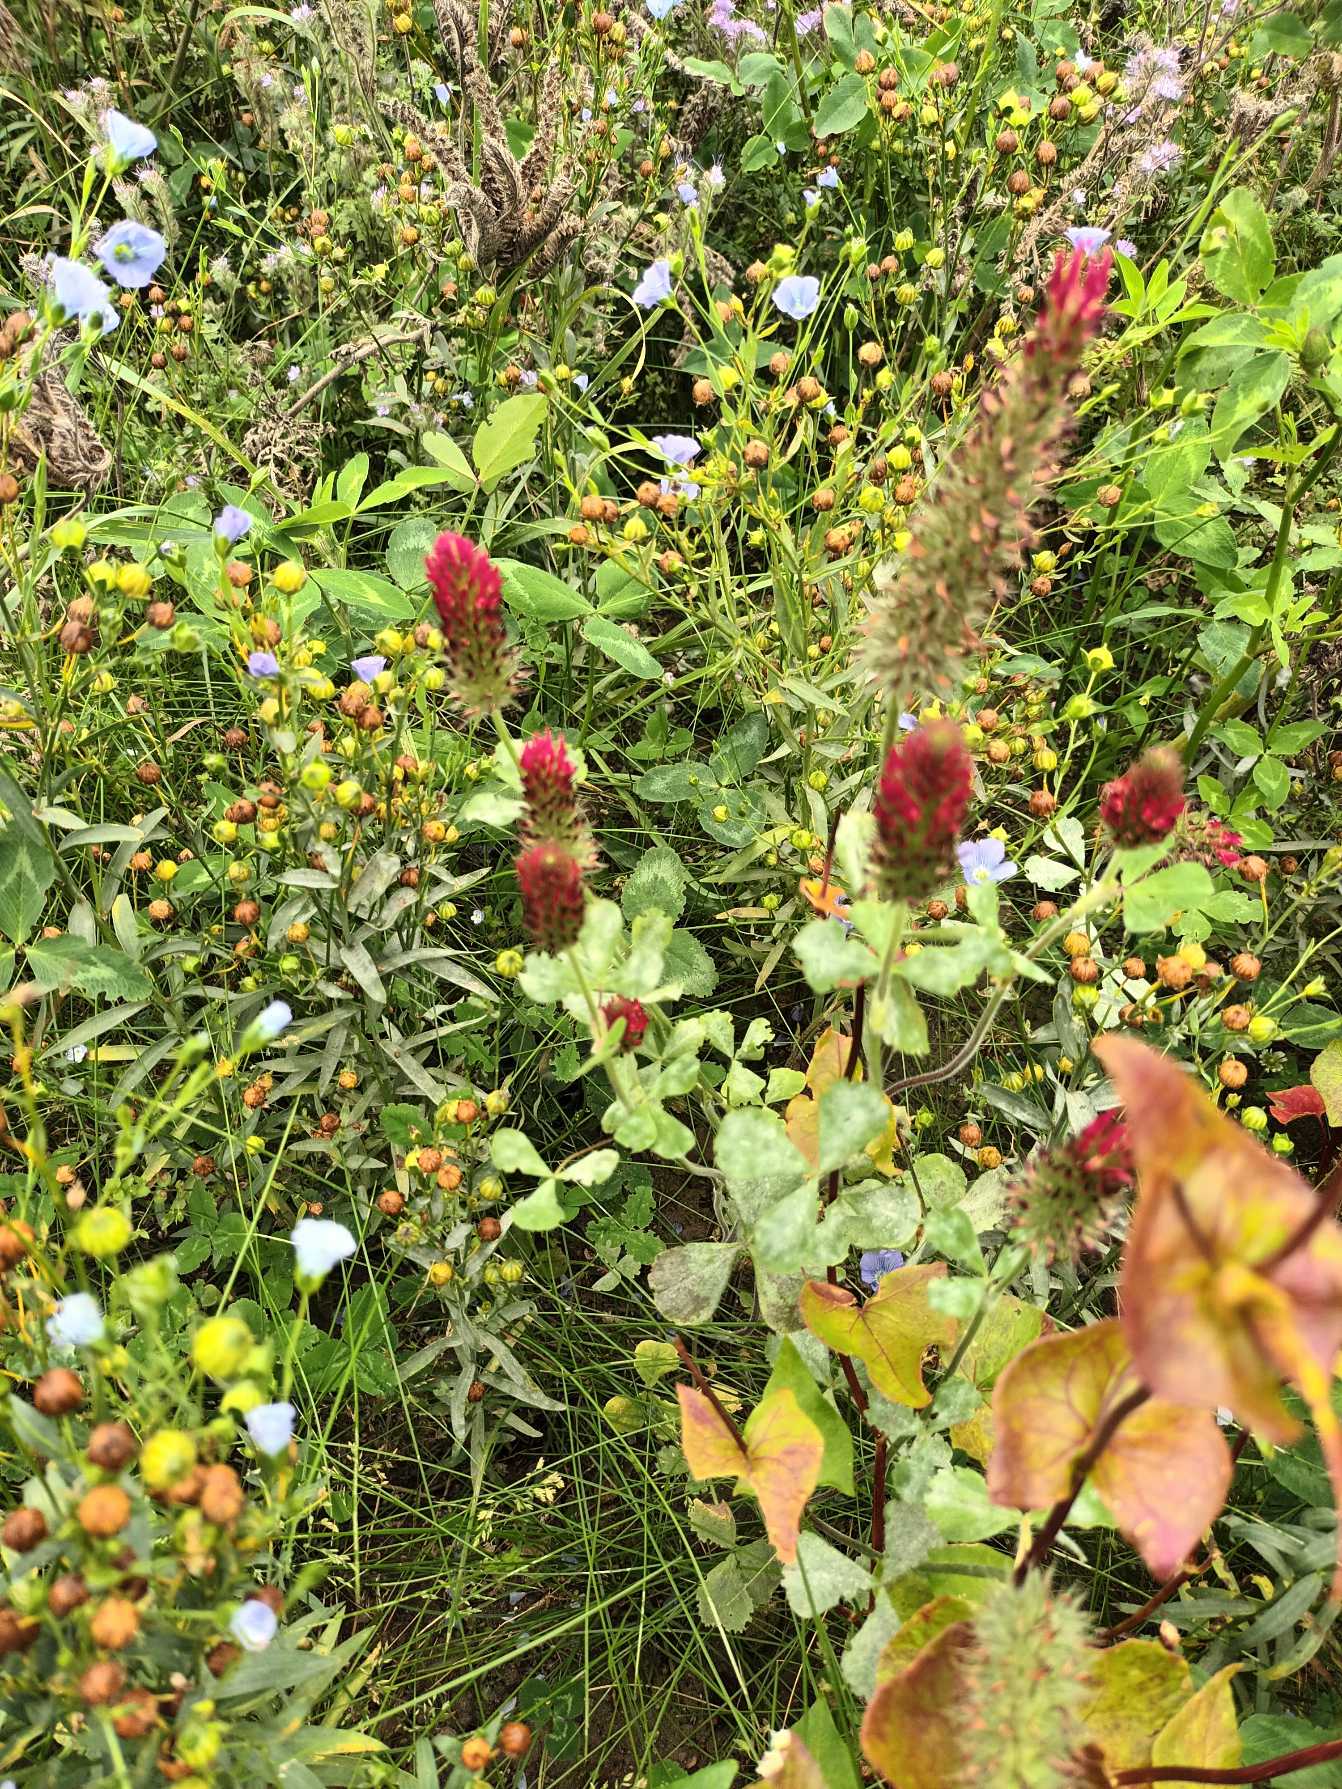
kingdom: Plantae
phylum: Tracheophyta
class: Magnoliopsida
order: Fabales
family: Fabaceae
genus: Trifolium
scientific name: Trifolium incarnatum
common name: Blod-kløver
